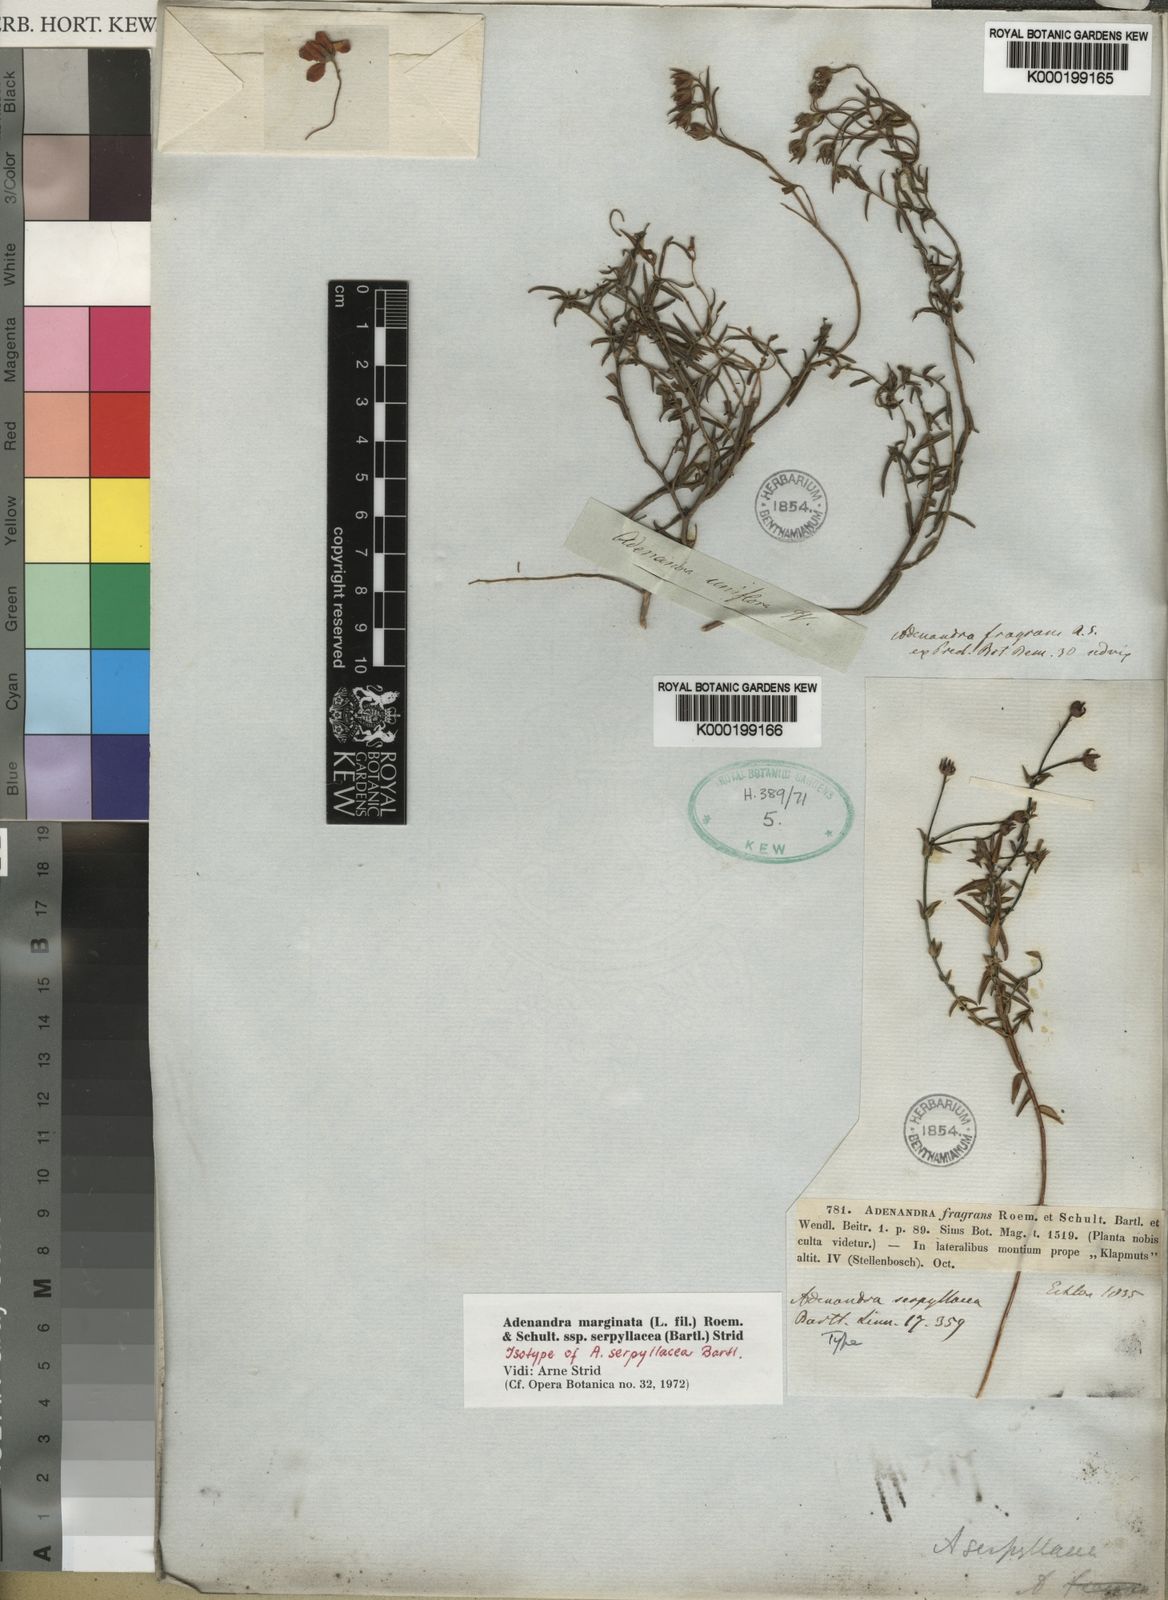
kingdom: Plantae
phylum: Tracheophyta
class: Magnoliopsida
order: Sapindales
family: Rutaceae
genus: Adenandra
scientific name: Adenandra marginata
